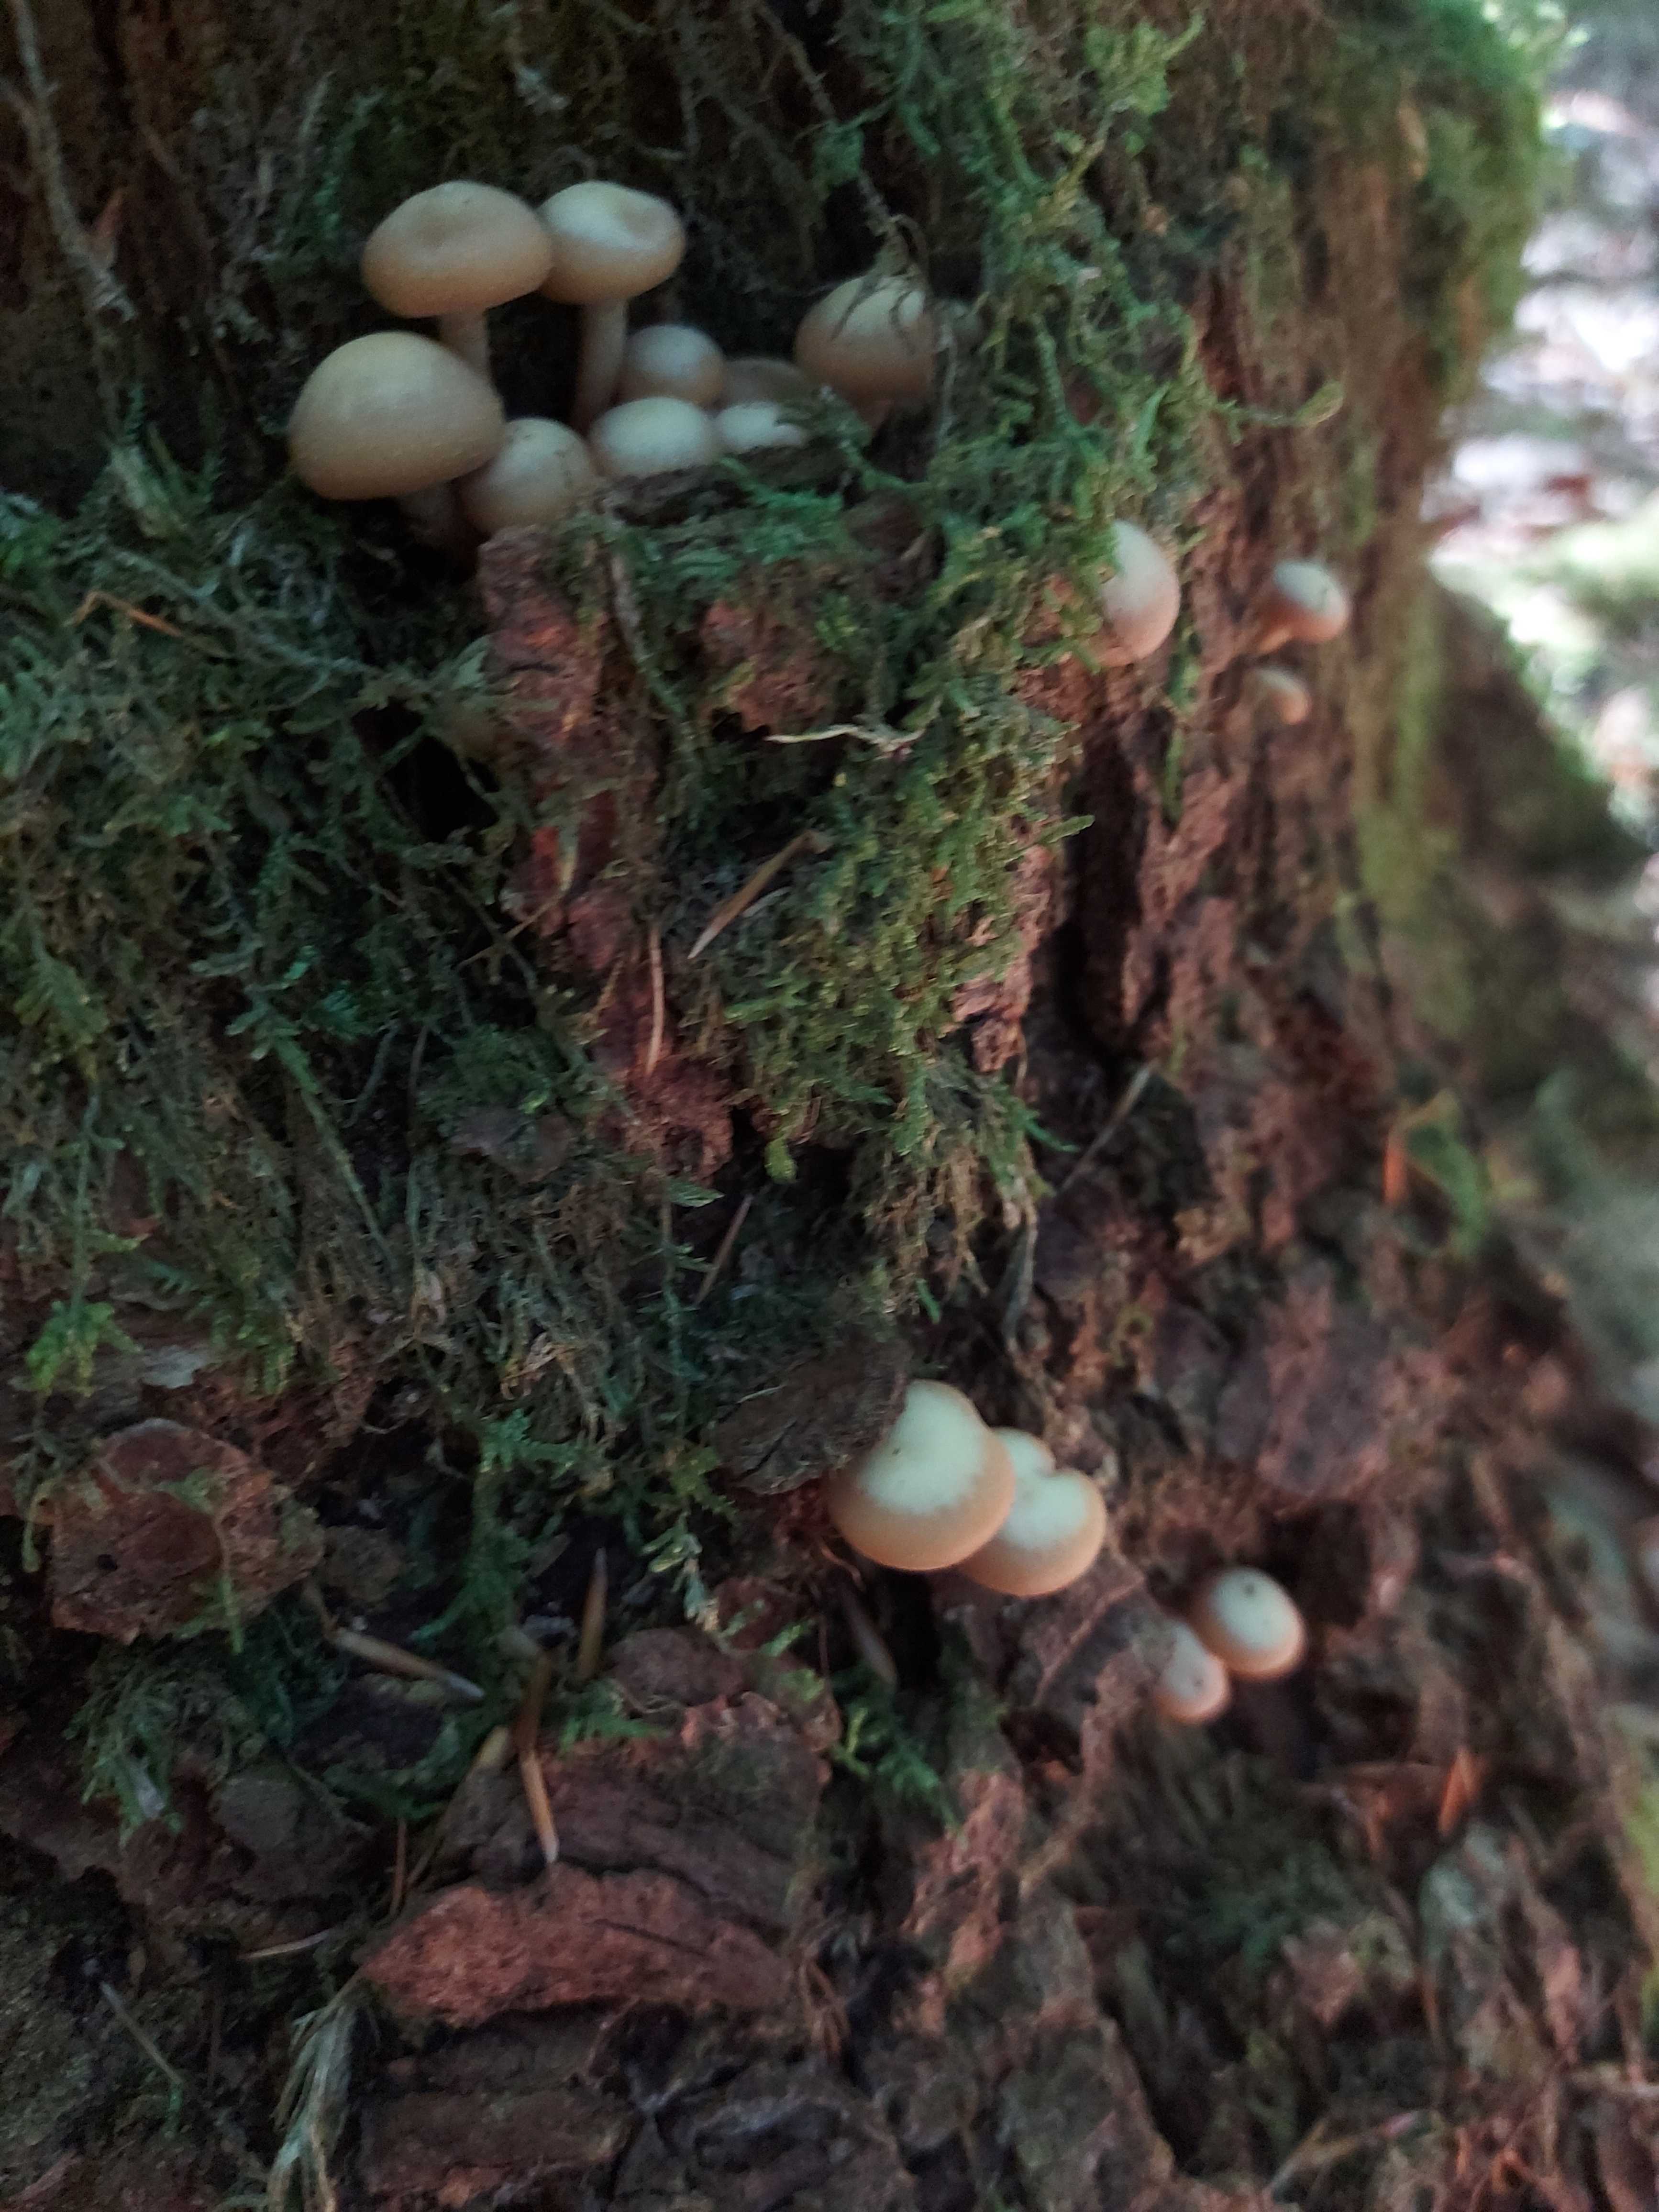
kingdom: Fungi
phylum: Basidiomycota
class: Agaricomycetes
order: Agaricales
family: Strophariaceae
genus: Kuehneromyces
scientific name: Kuehneromyces mutabilis
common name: foranderlig skælhat
